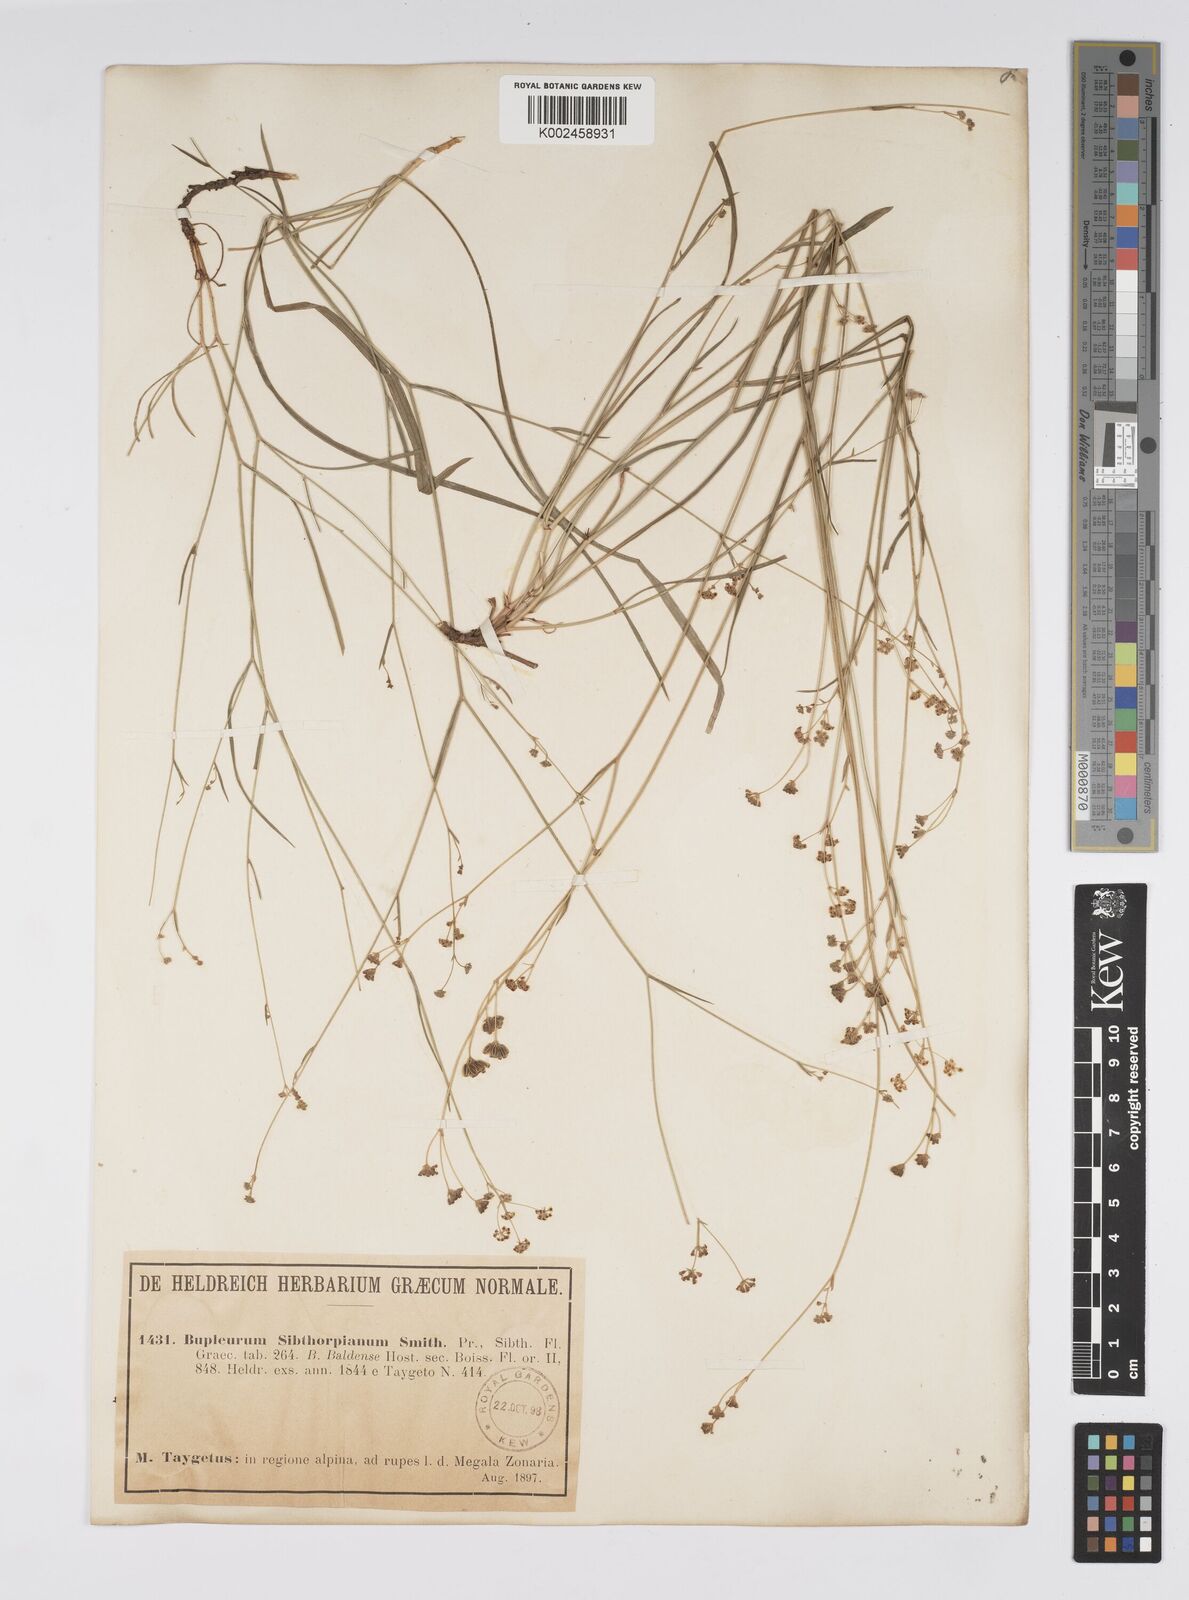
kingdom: Plantae
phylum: Tracheophyta
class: Magnoliopsida
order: Apiales
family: Apiaceae
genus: Bupleurum
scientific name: Bupleurum falcatum
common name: Sickle-leaved hare's-ear
